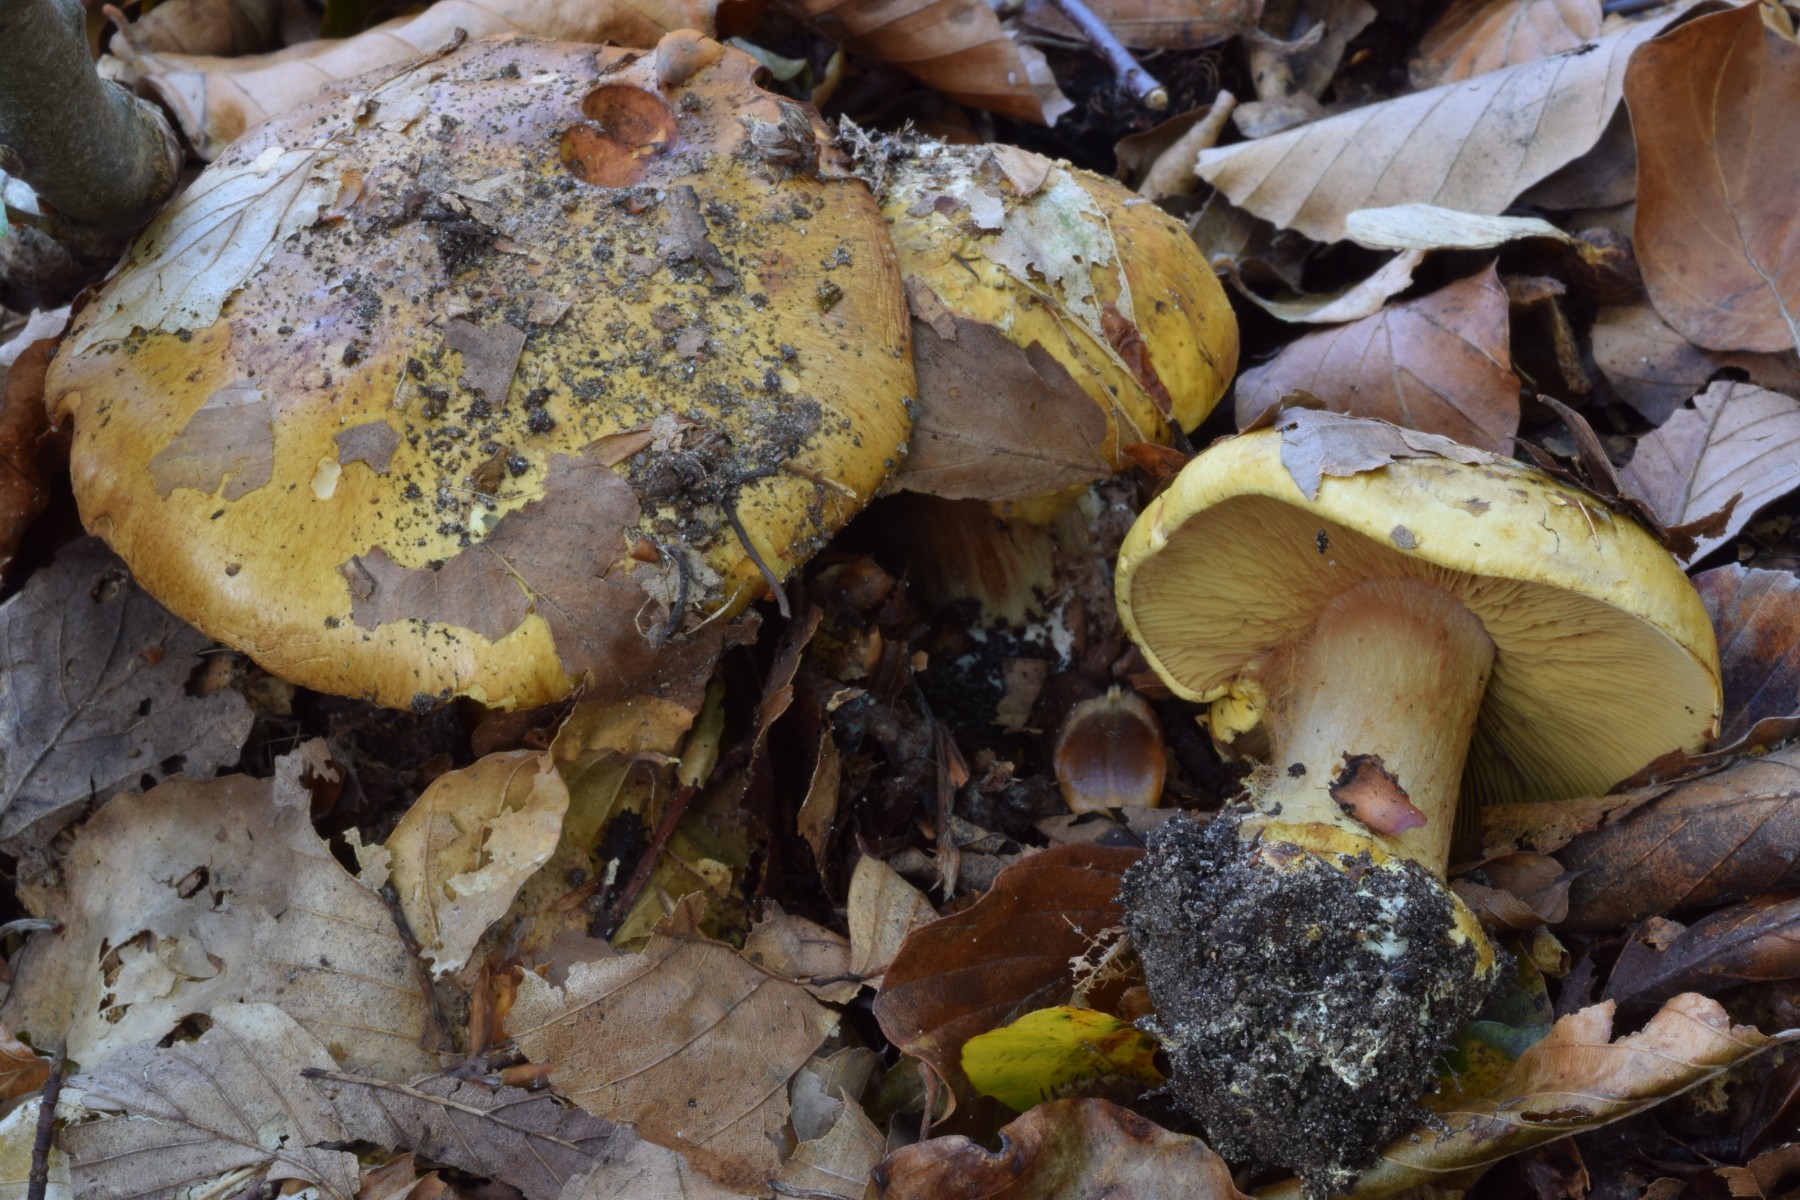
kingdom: Fungi
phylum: Basidiomycota
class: Agaricomycetes
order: Agaricales
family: Cortinariaceae
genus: Calonarius
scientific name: Calonarius alcalinophilus
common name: gyldenbrun slørhat
